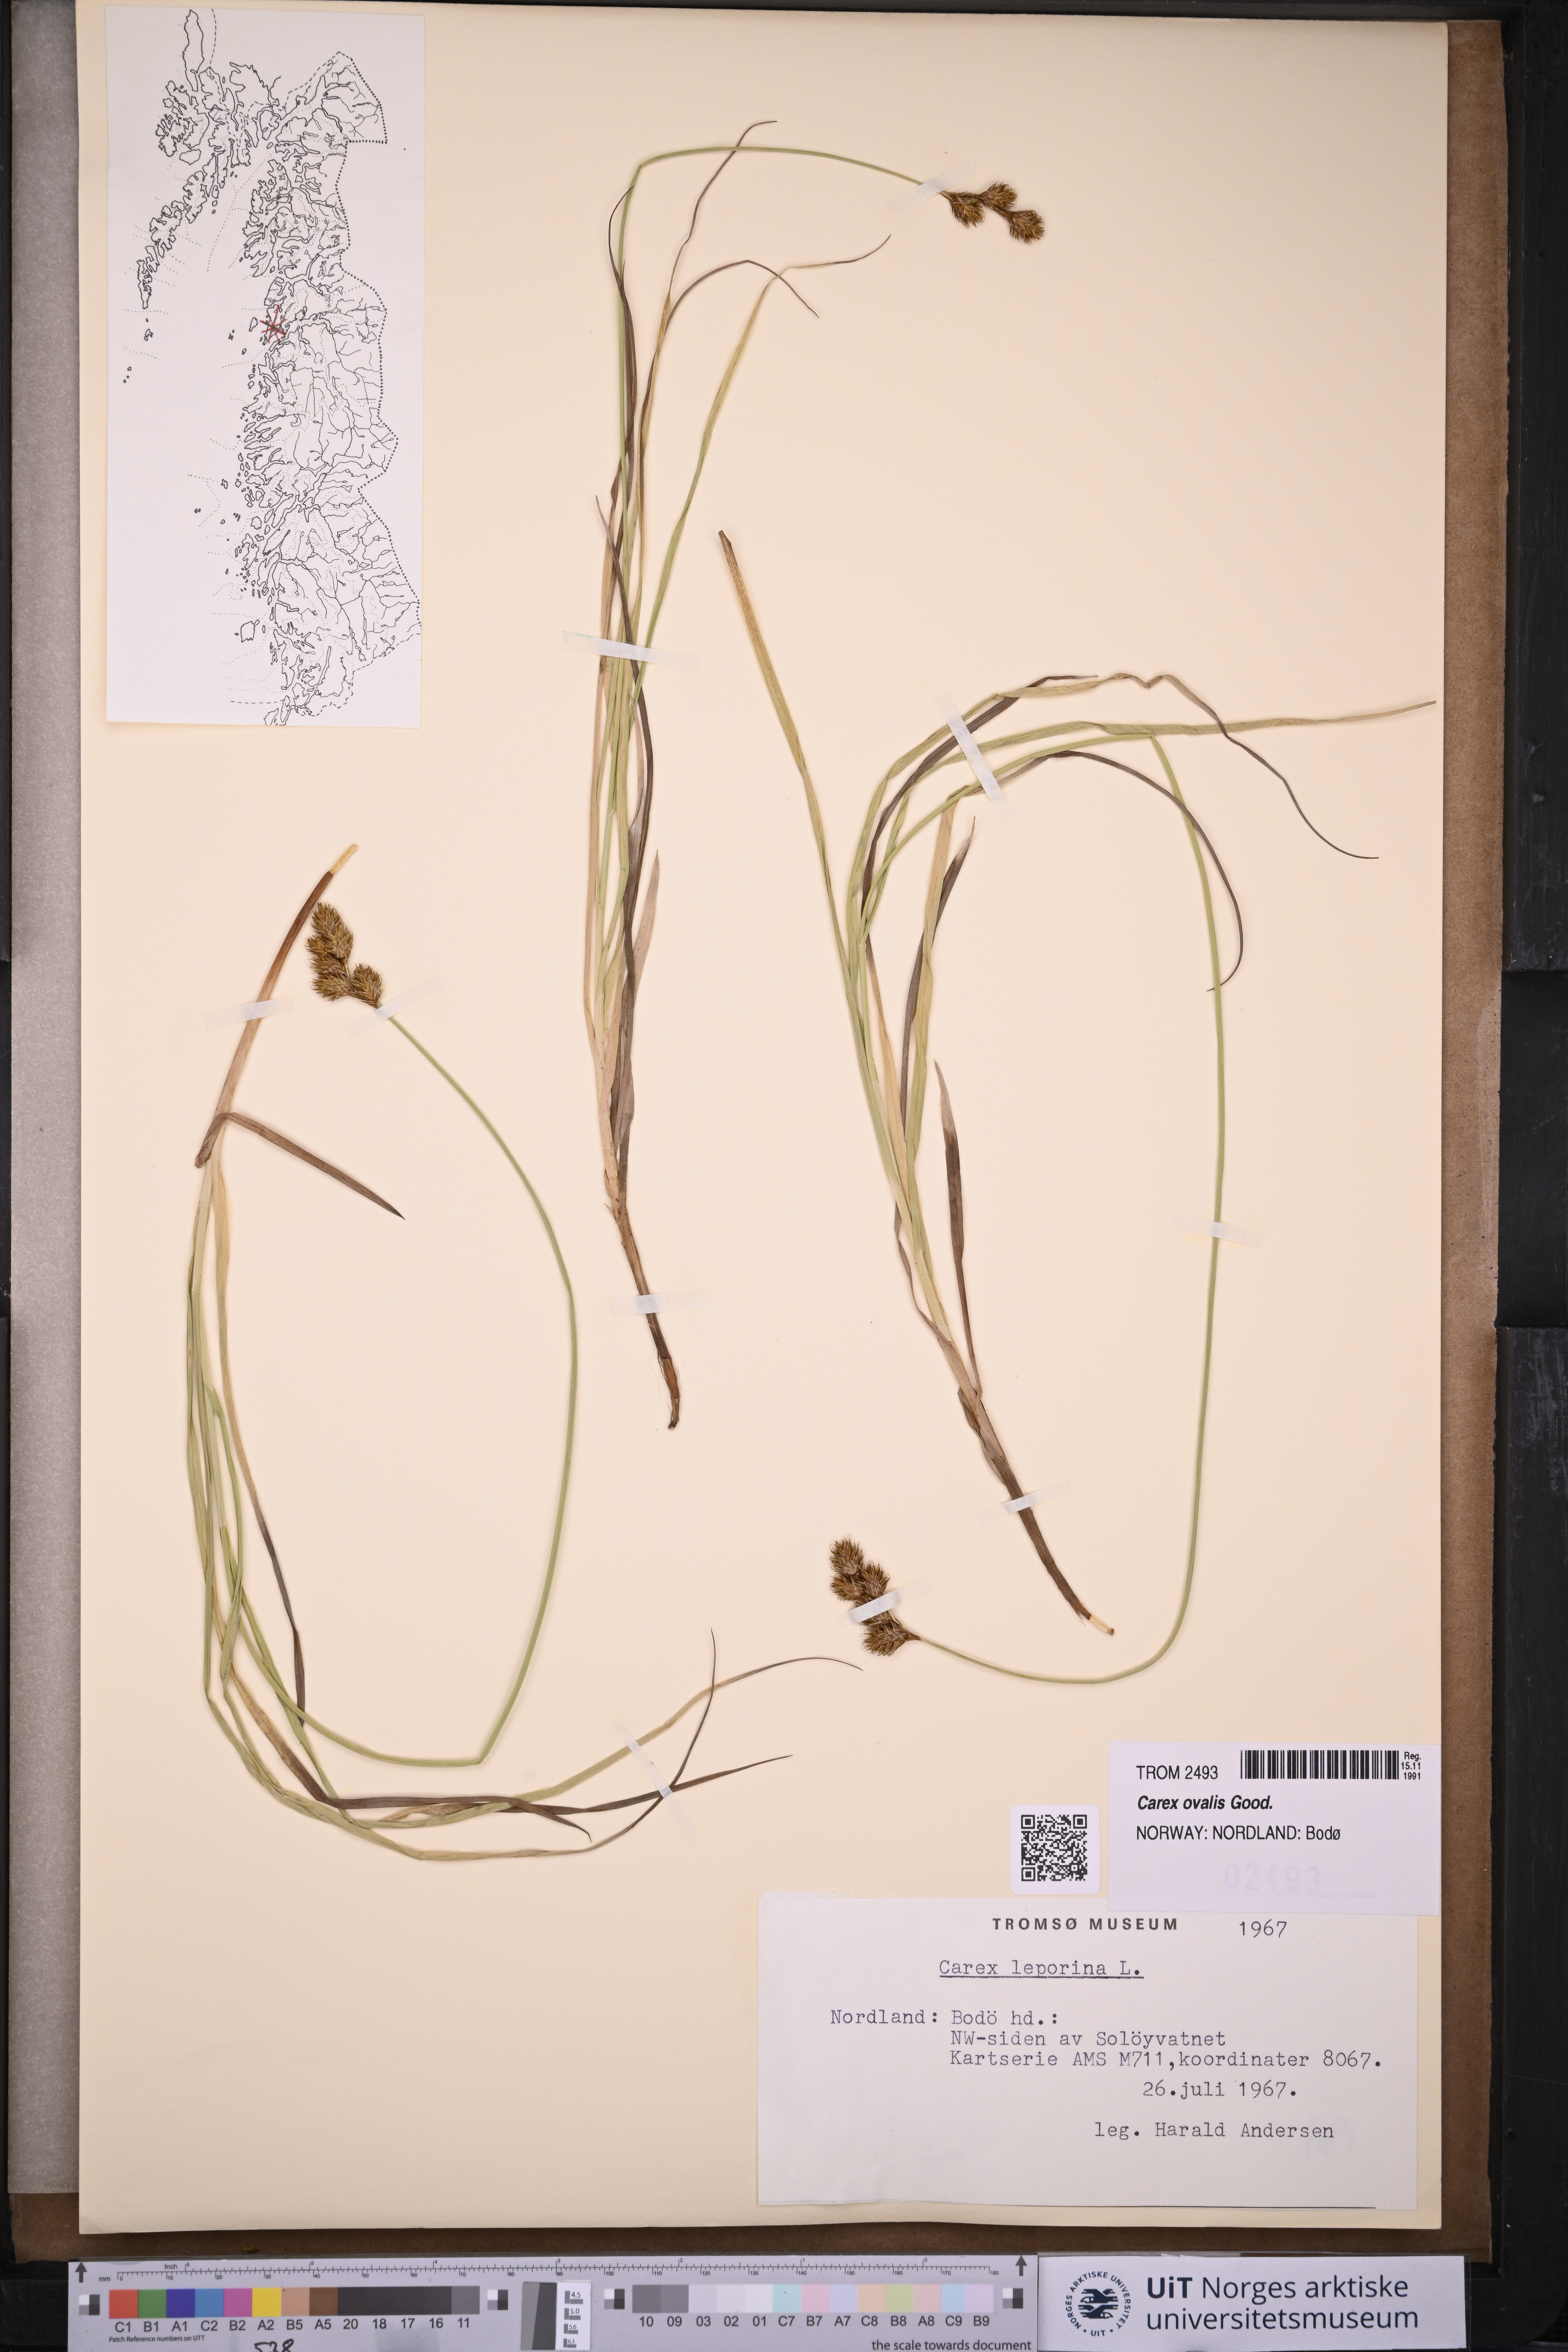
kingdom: Plantae
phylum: Tracheophyta
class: Liliopsida
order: Poales
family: Cyperaceae
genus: Carex
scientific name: Carex leporina
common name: Oval sedge
